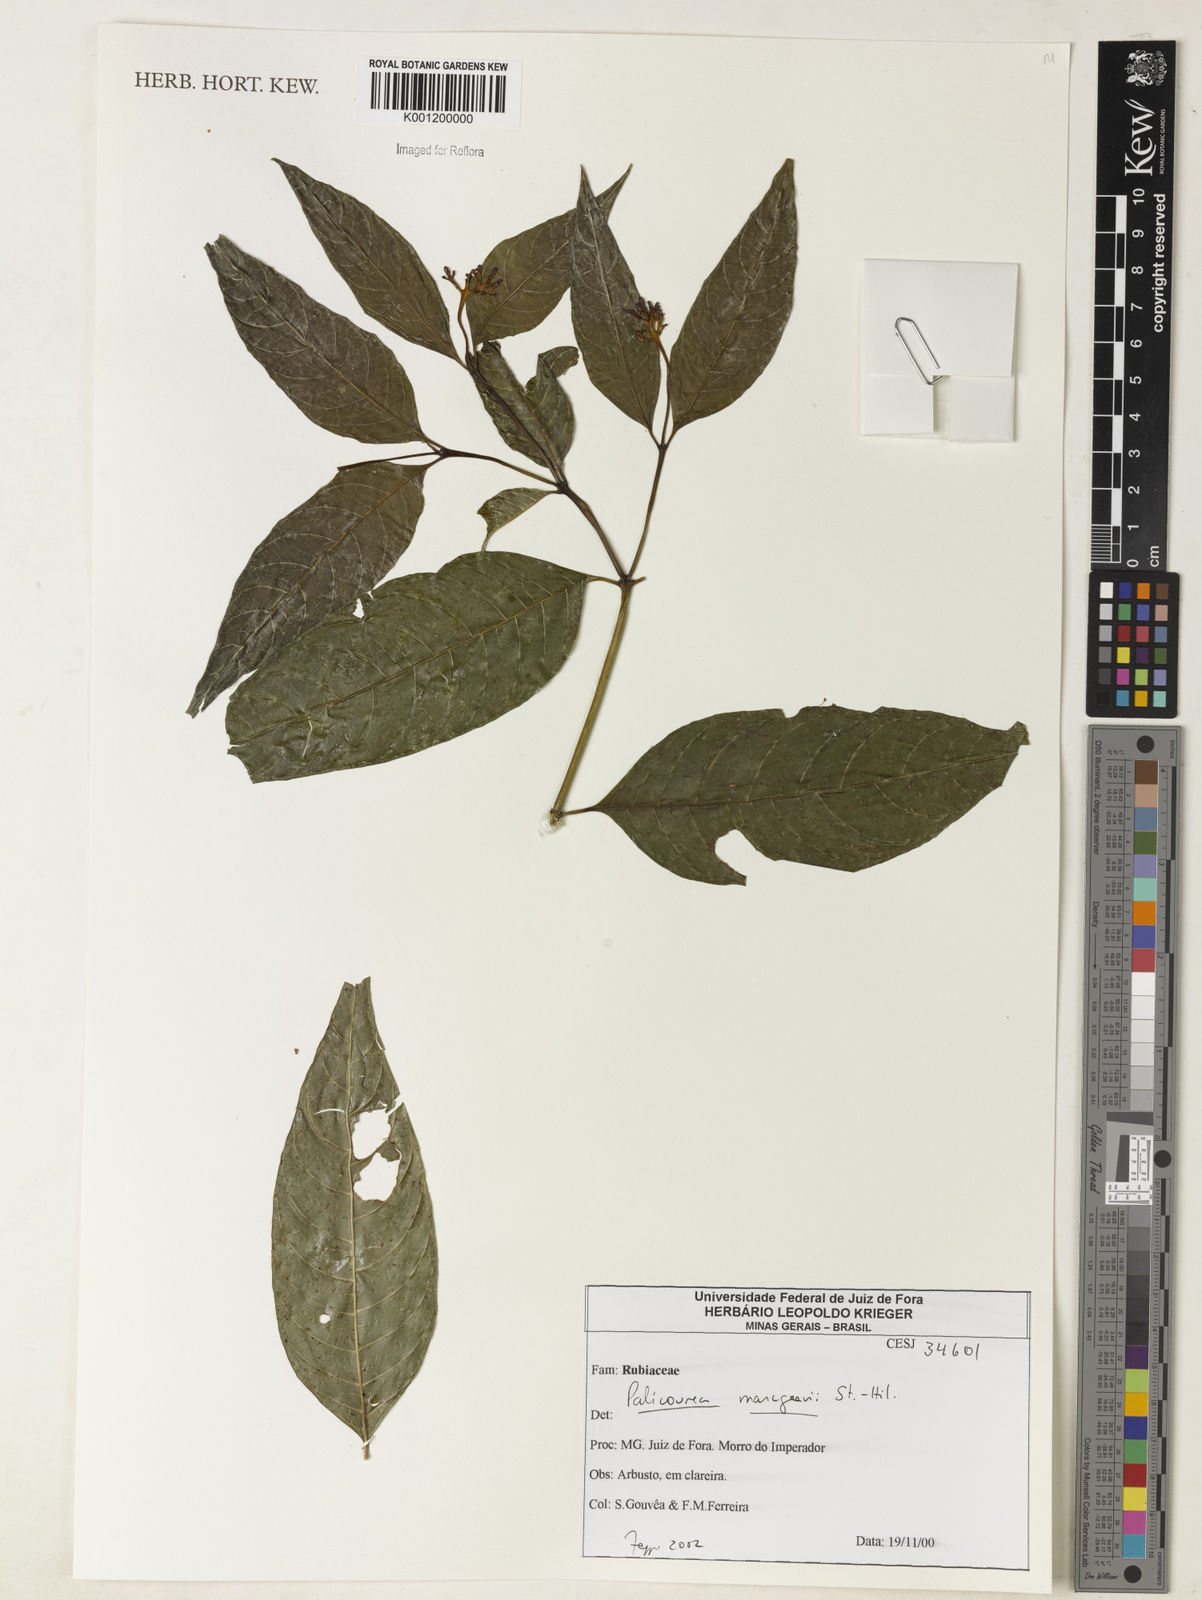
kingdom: Plantae
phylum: Tracheophyta
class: Magnoliopsida
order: Gentianales
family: Rubiaceae
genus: Palicourea
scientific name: Palicourea marcgravii
